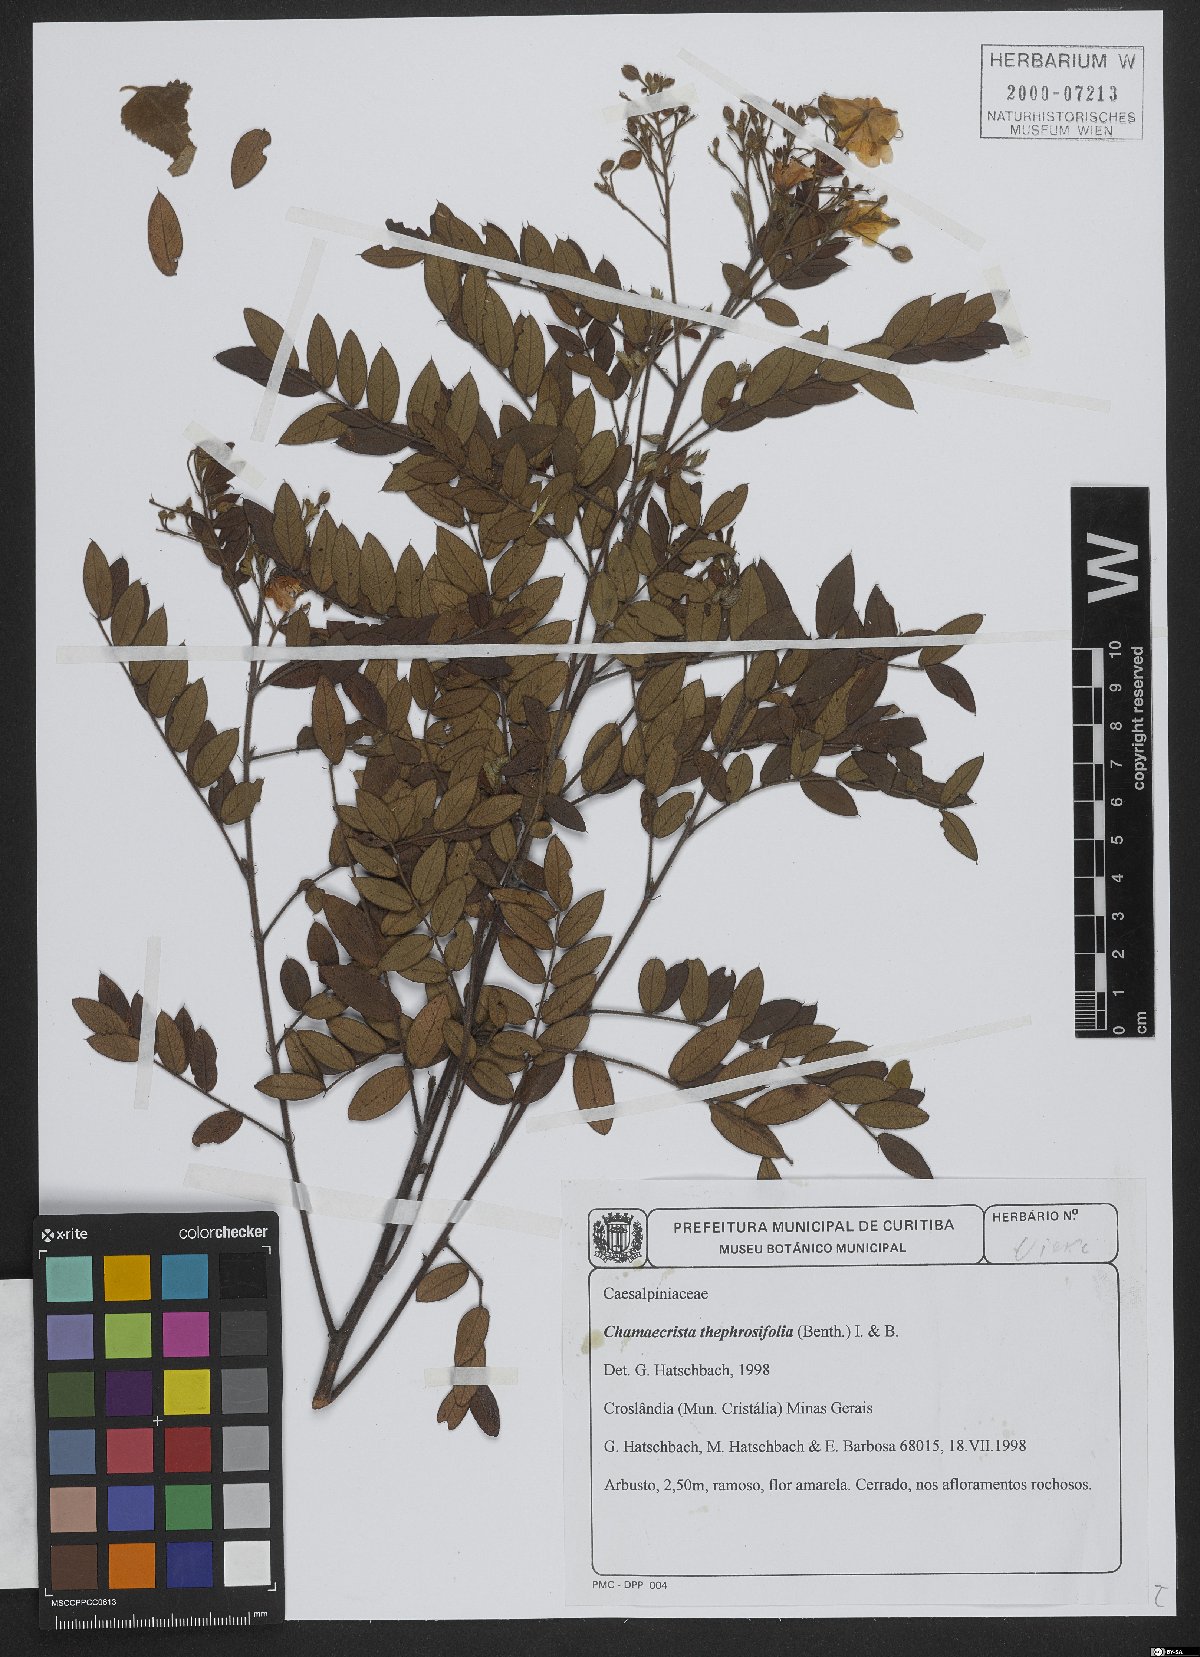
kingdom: Plantae
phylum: Tracheophyta
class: Magnoliopsida
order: Fabales
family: Fabaceae
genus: Chamaecrista
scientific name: Chamaecrista tephrosiifolia
